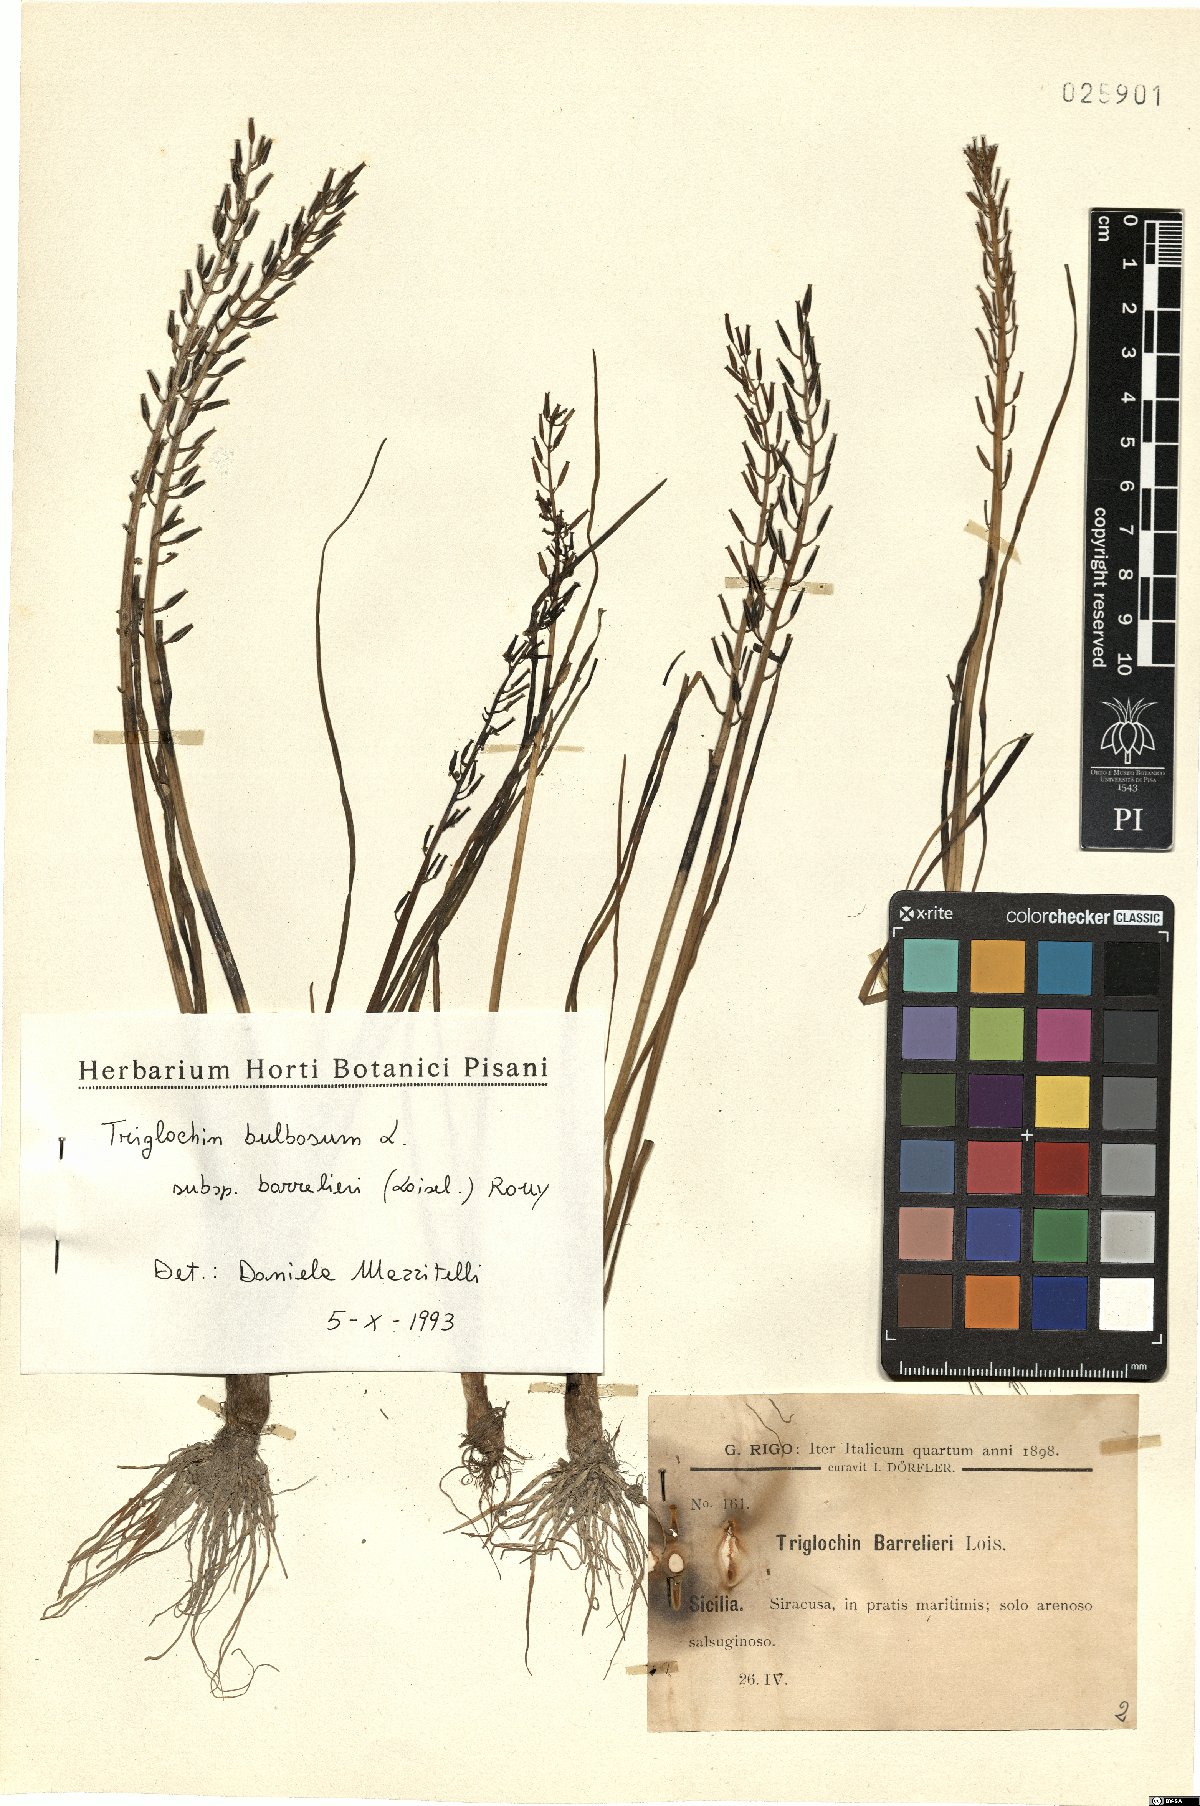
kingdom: Plantae
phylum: Tracheophyta
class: Liliopsida
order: Alismatales
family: Juncaginaceae
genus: Triglochin
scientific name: Triglochin barrelieri
